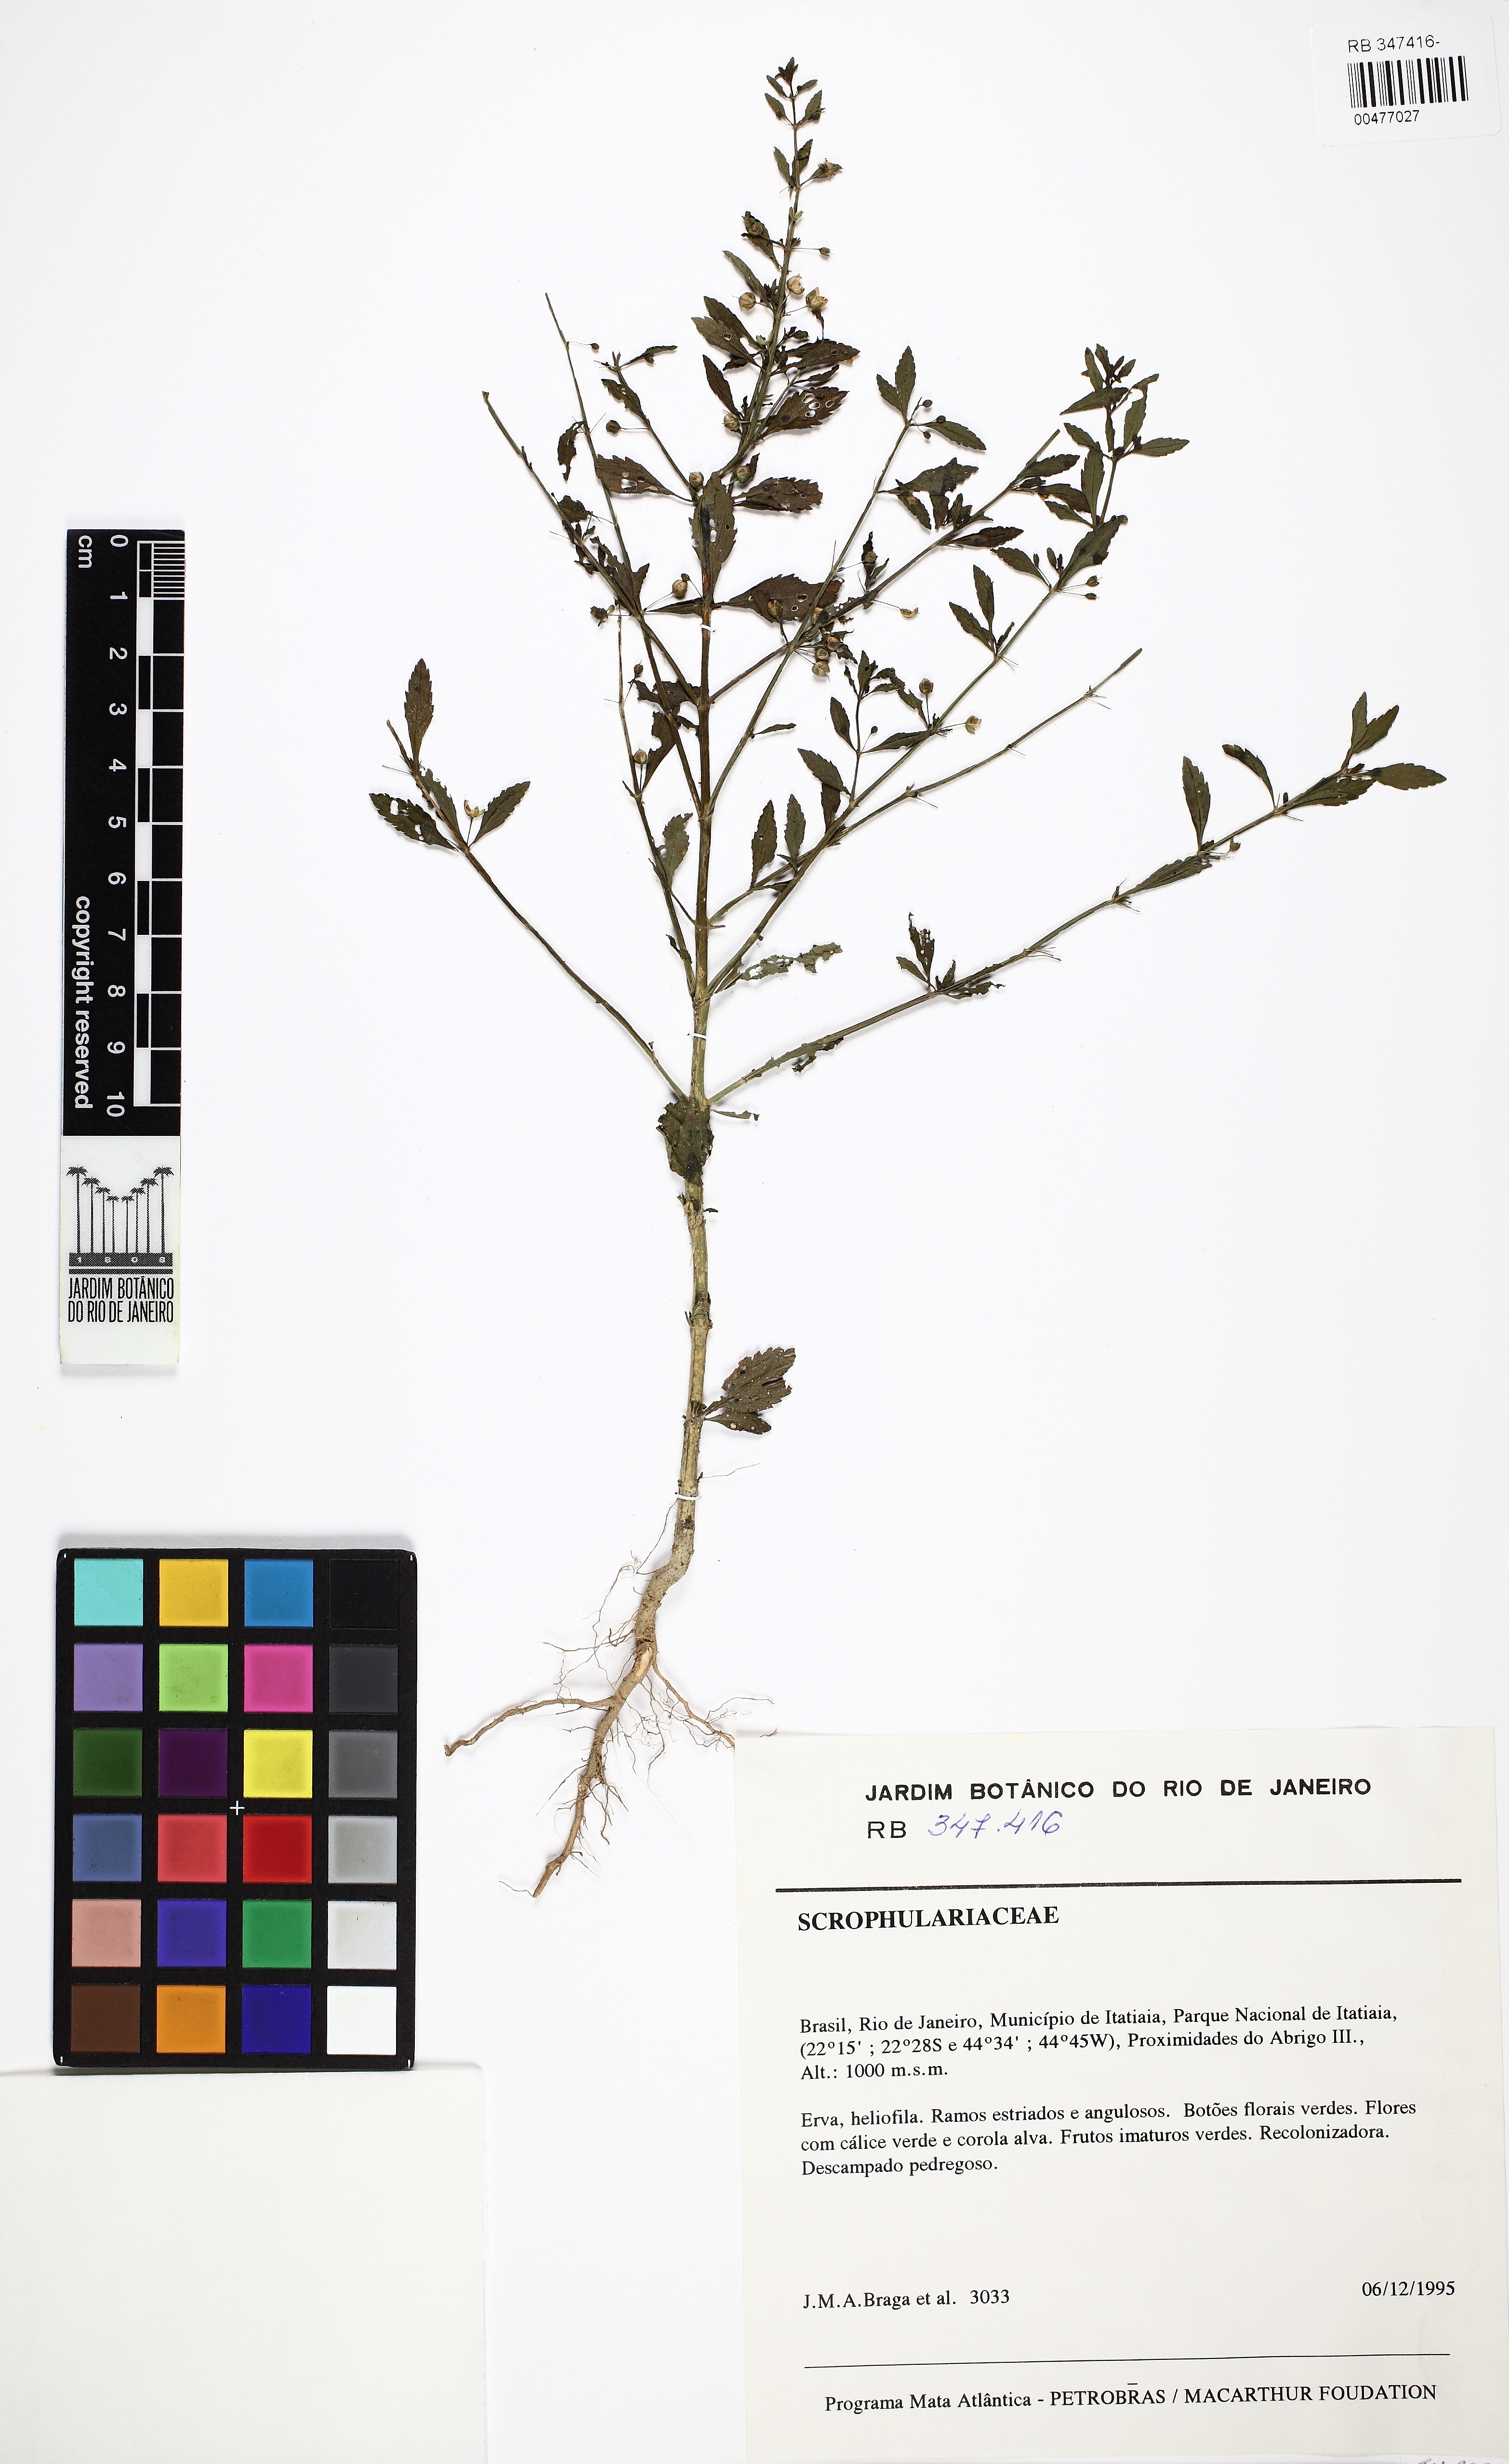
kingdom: Plantae
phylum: Tracheophyta
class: Magnoliopsida
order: Lamiales
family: Plantaginaceae
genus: Scoparia
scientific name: Scoparia dulcis
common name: Scoparia-weed
